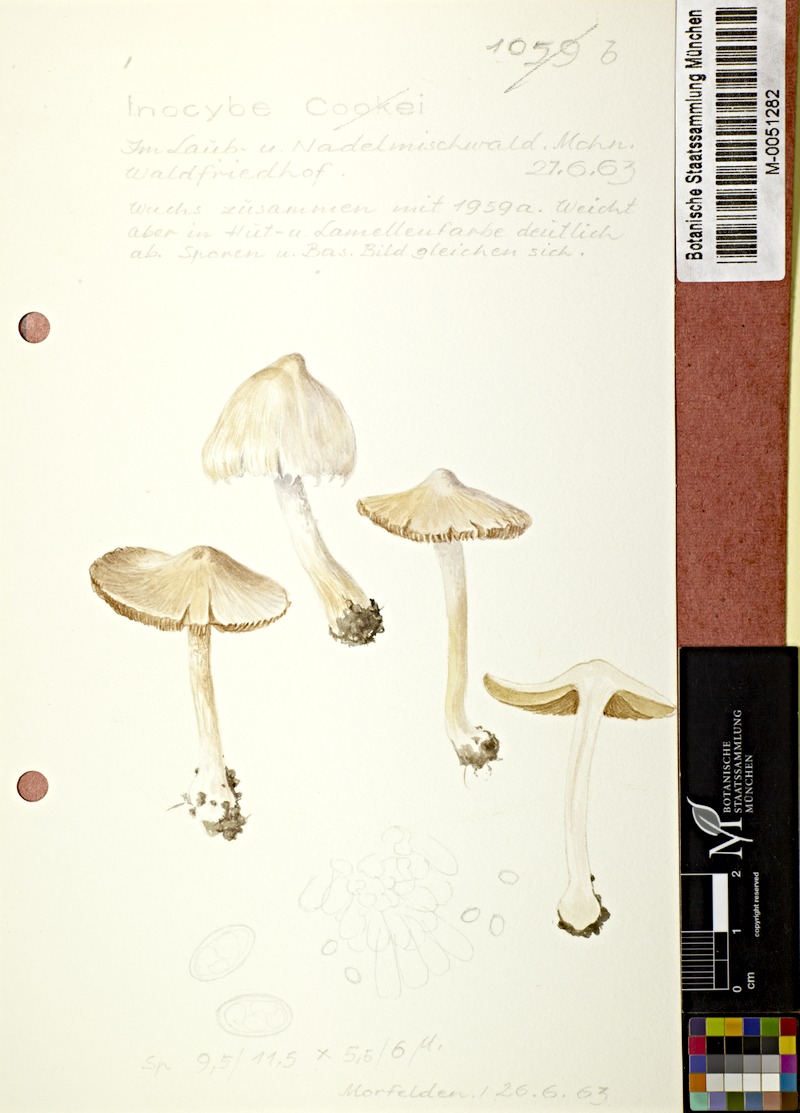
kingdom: Fungi
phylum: Basidiomycota
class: Agaricomycetes
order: Agaricales
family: Inocybaceae
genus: Inosperma
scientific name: Inosperma cookei
